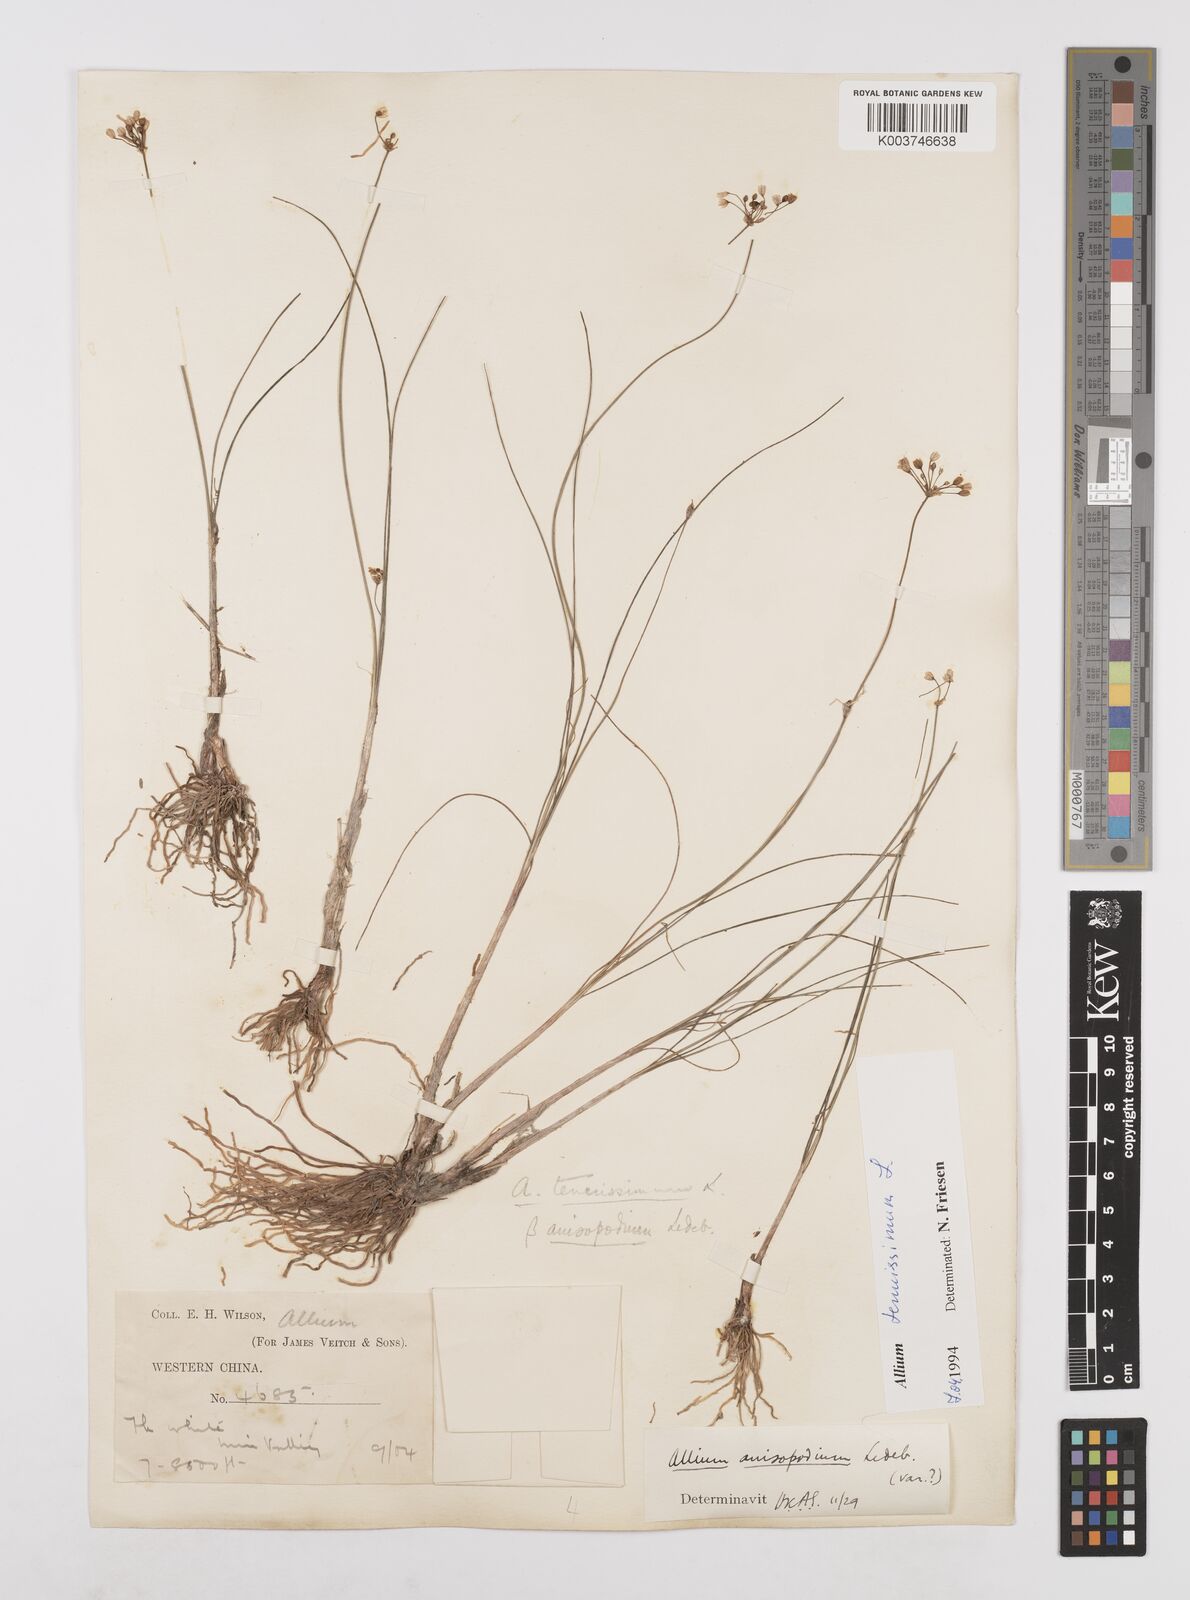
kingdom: Plantae
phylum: Tracheophyta
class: Liliopsida
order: Asparagales
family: Amaryllidaceae
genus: Allium
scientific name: Allium tenuissimum
